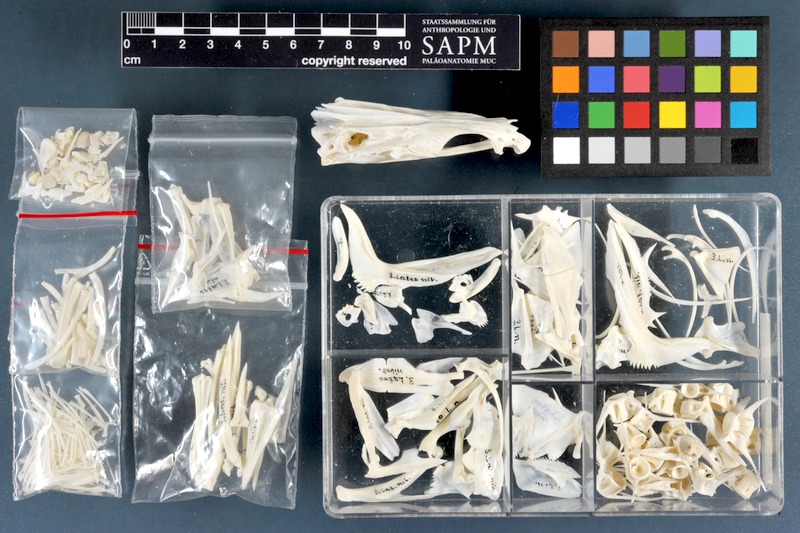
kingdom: Animalia
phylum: Chordata
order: Perciformes
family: Latidae
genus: Lates
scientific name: Lates niloticus
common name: Nile perch
